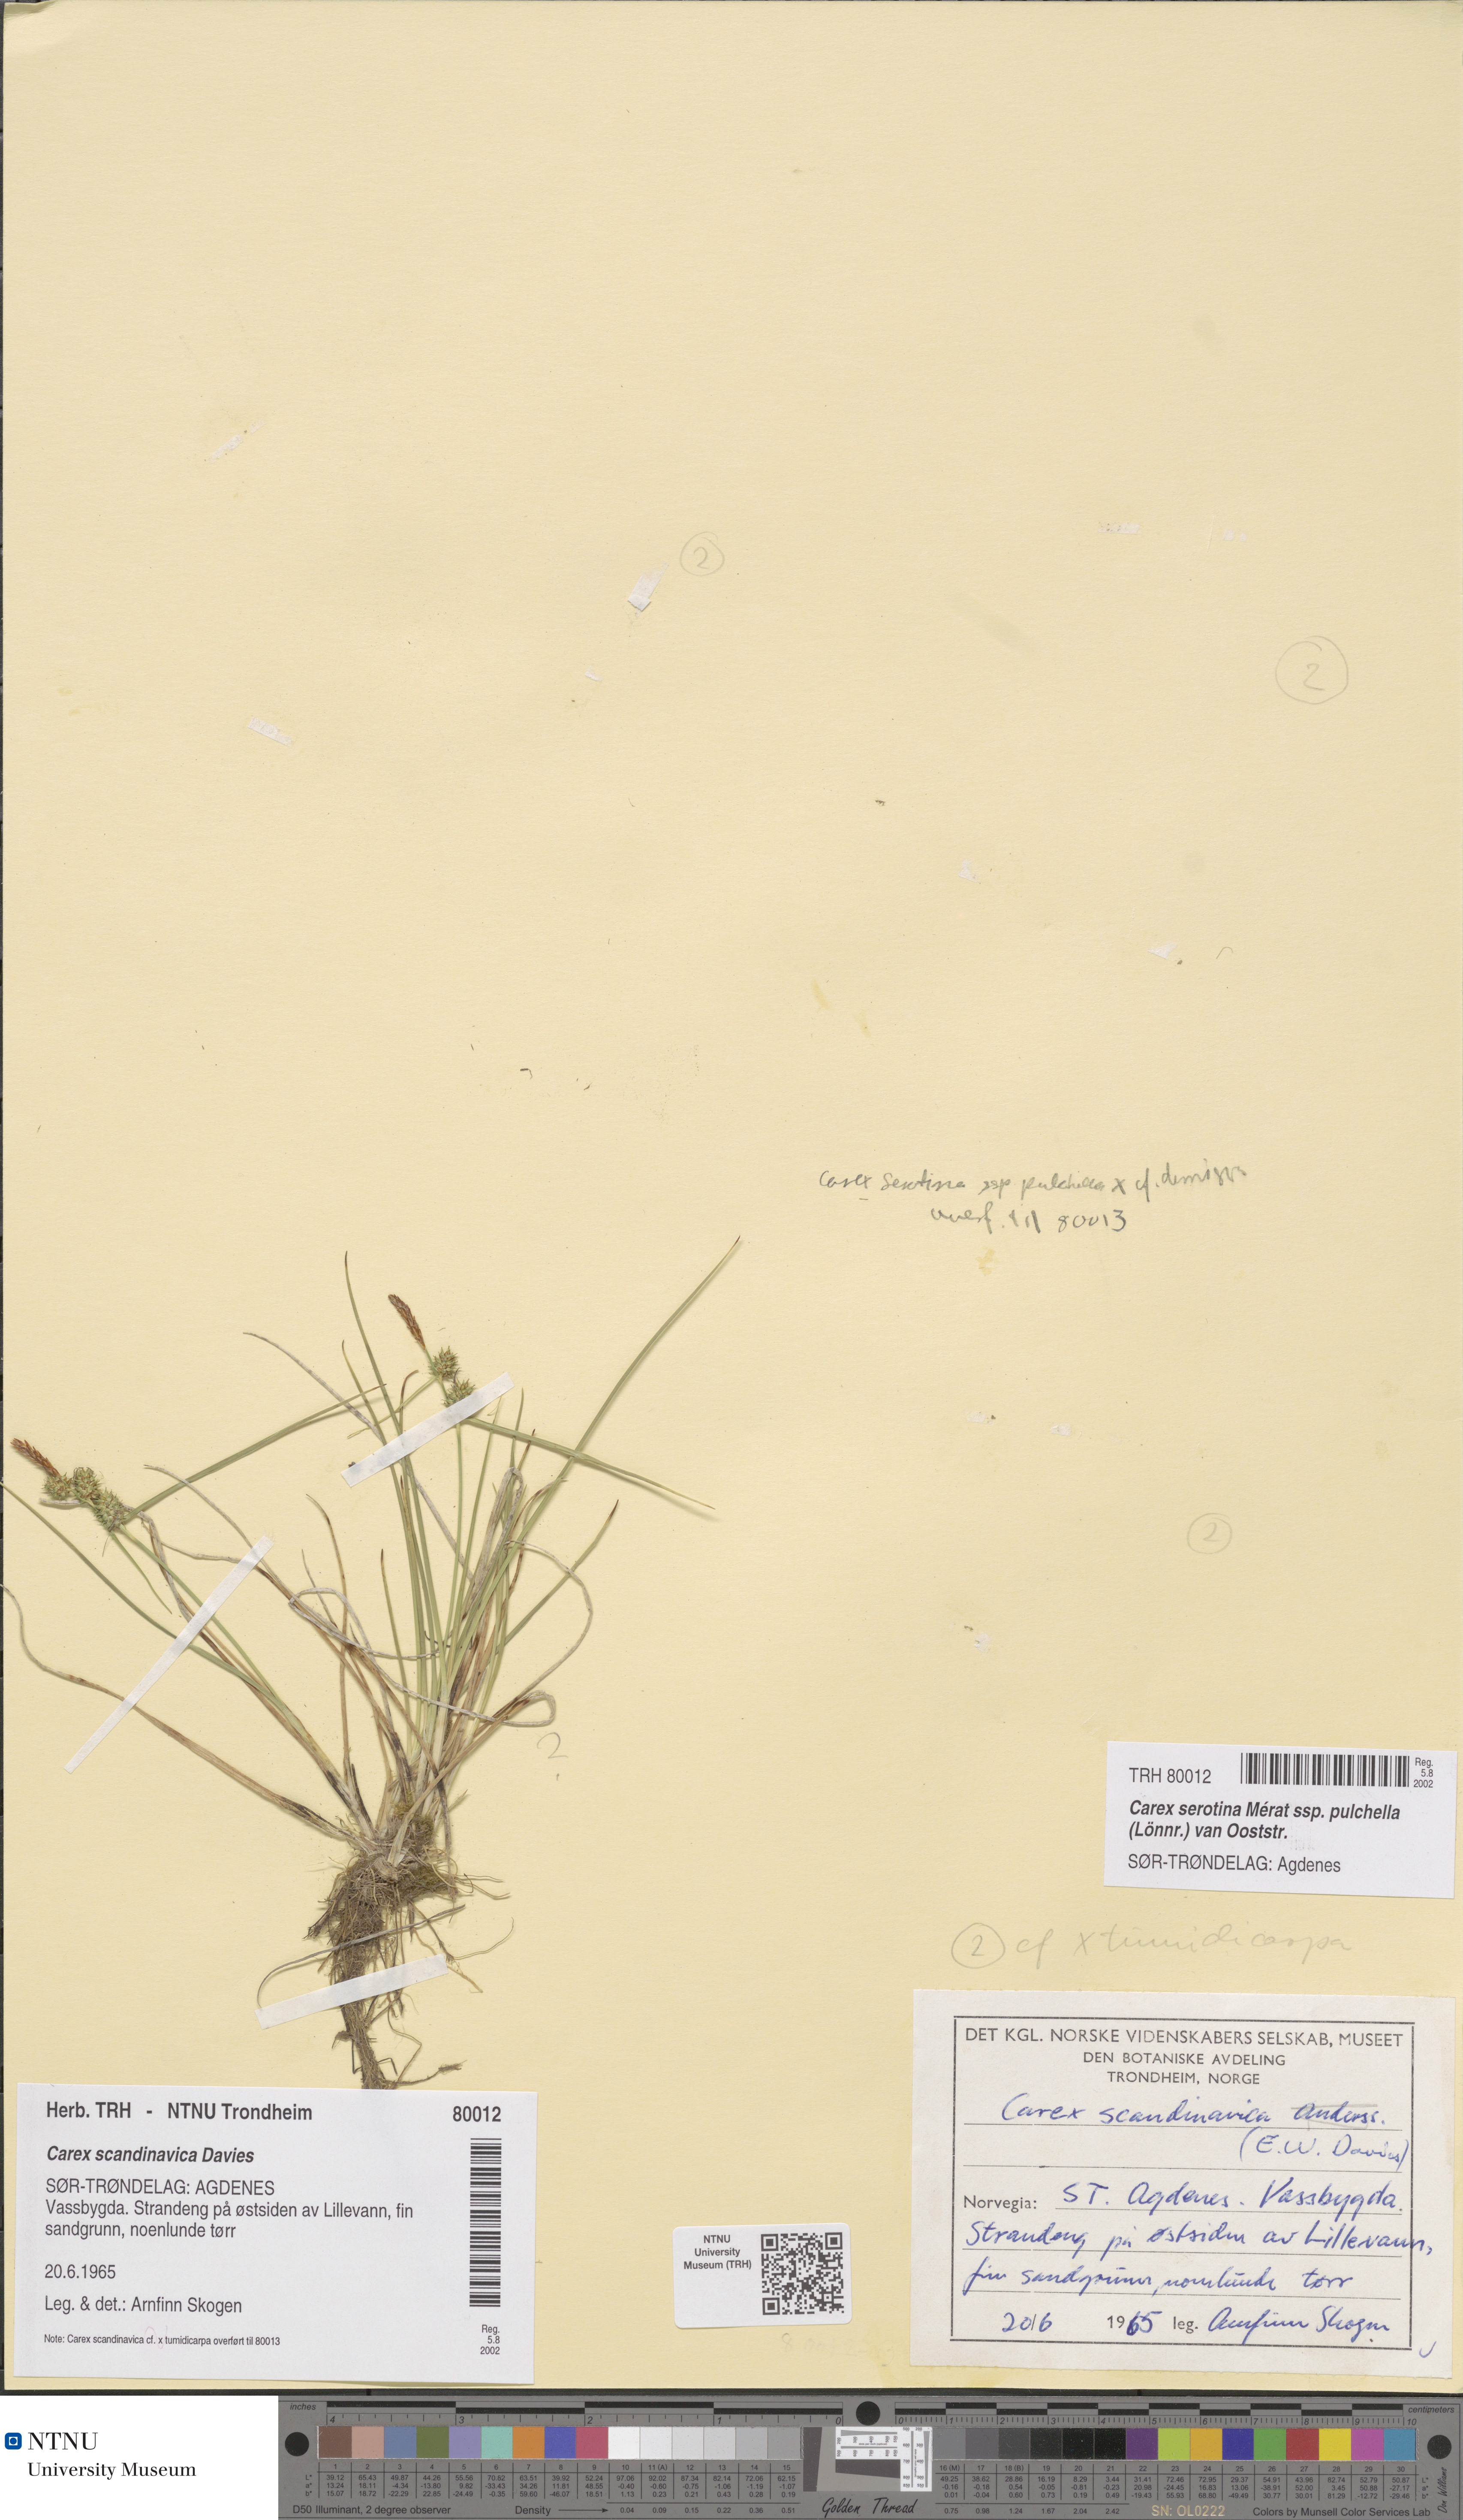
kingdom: Plantae
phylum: Tracheophyta
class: Liliopsida
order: Poales
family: Cyperaceae
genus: Carex
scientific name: Carex oederi
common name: Common & small-fruited yellow-sedge
